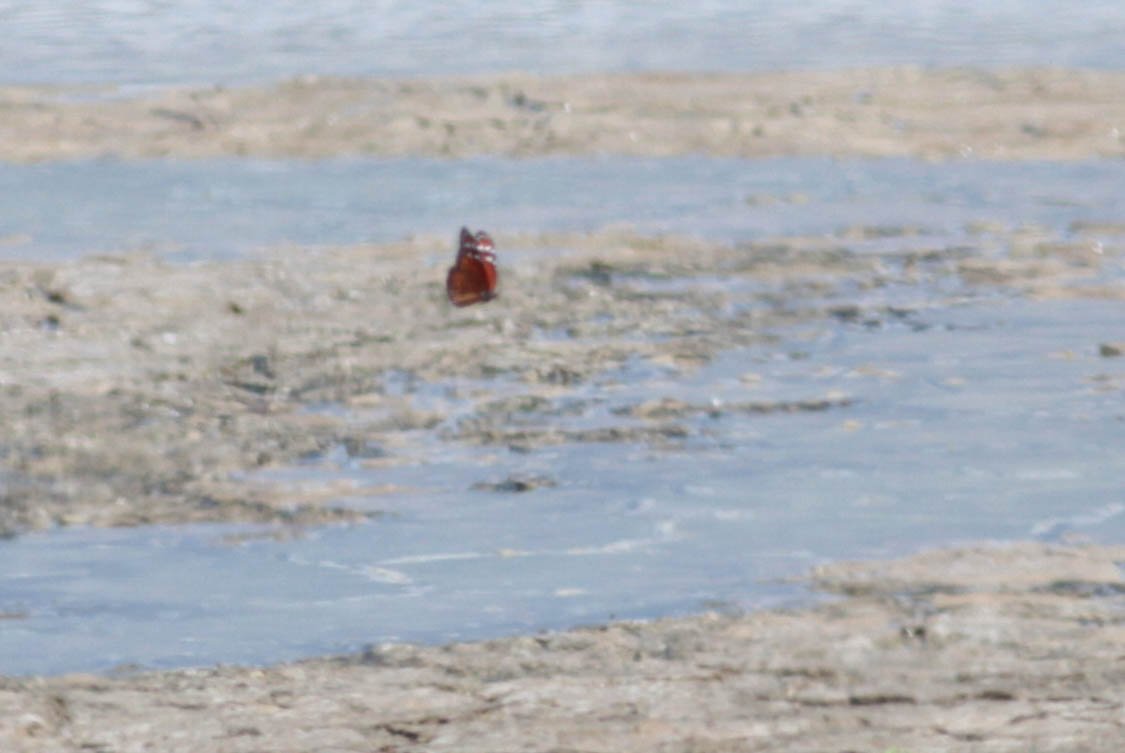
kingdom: Animalia
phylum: Arthropoda
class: Insecta
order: Lepidoptera
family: Nymphalidae
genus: Danaus
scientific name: Danaus cleophile
